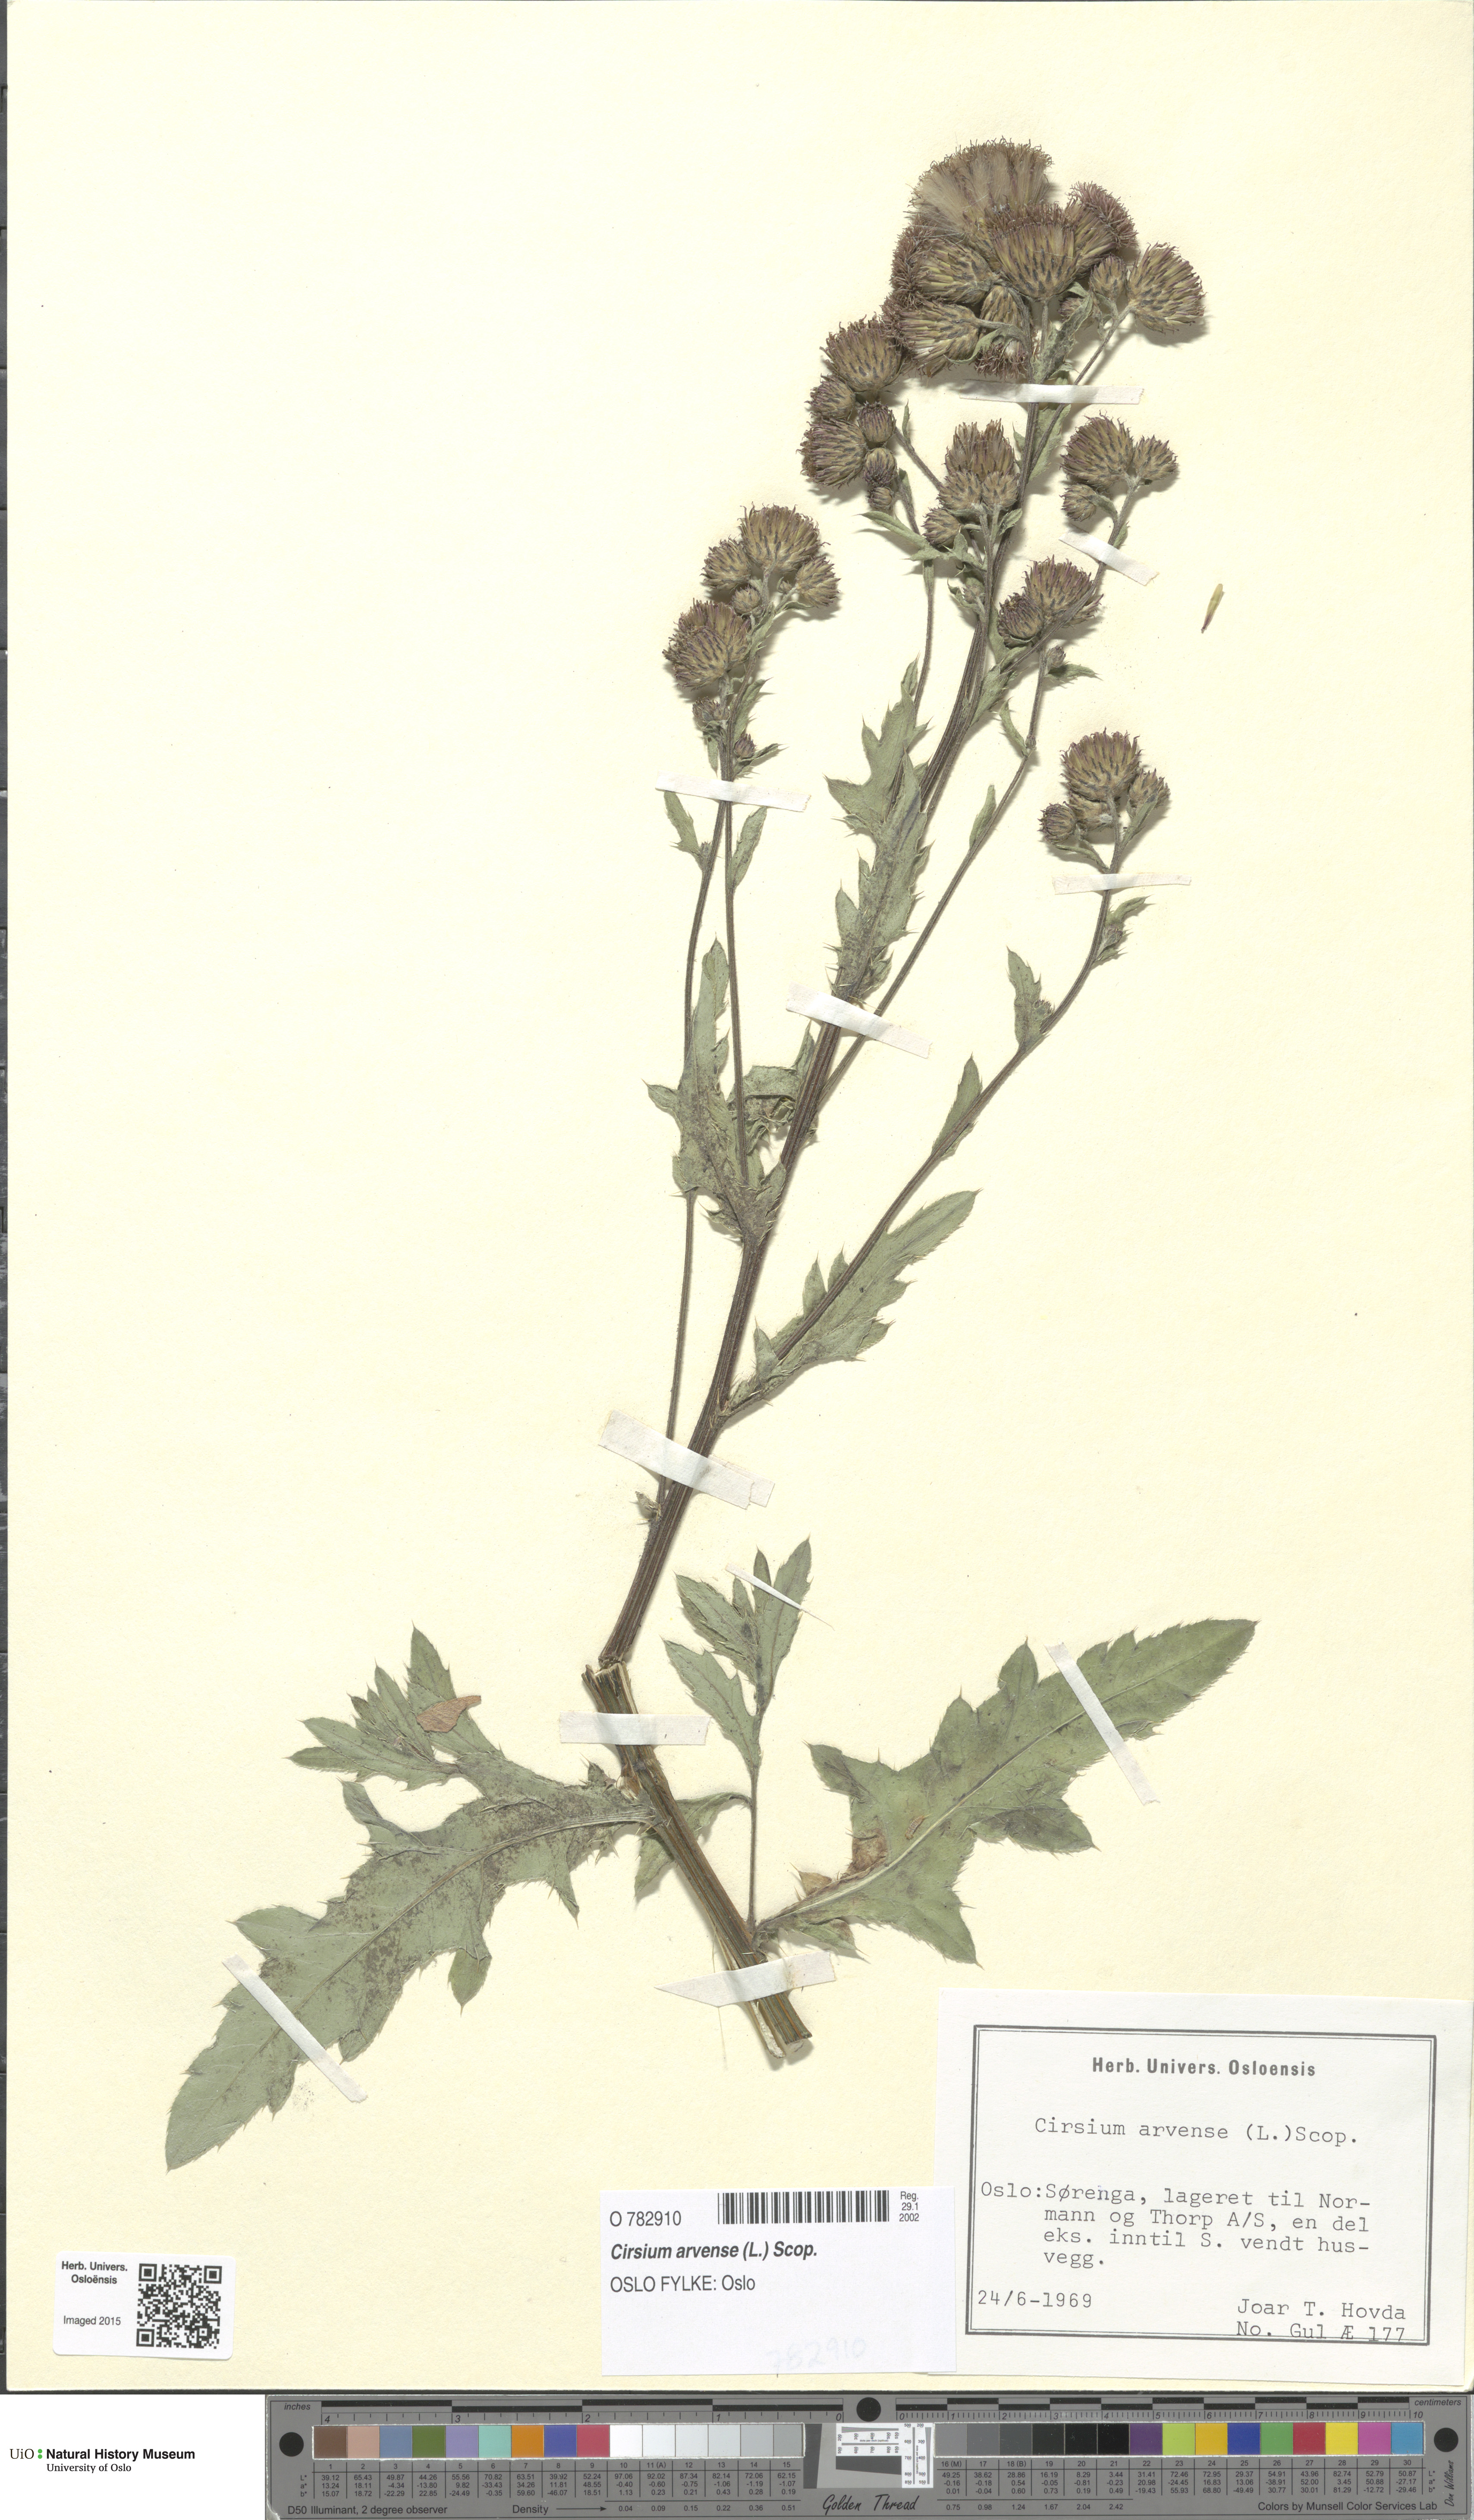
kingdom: Plantae
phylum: Tracheophyta
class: Magnoliopsida
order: Asterales
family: Asteraceae
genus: Cirsium
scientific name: Cirsium arvense
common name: Creeping thistle
